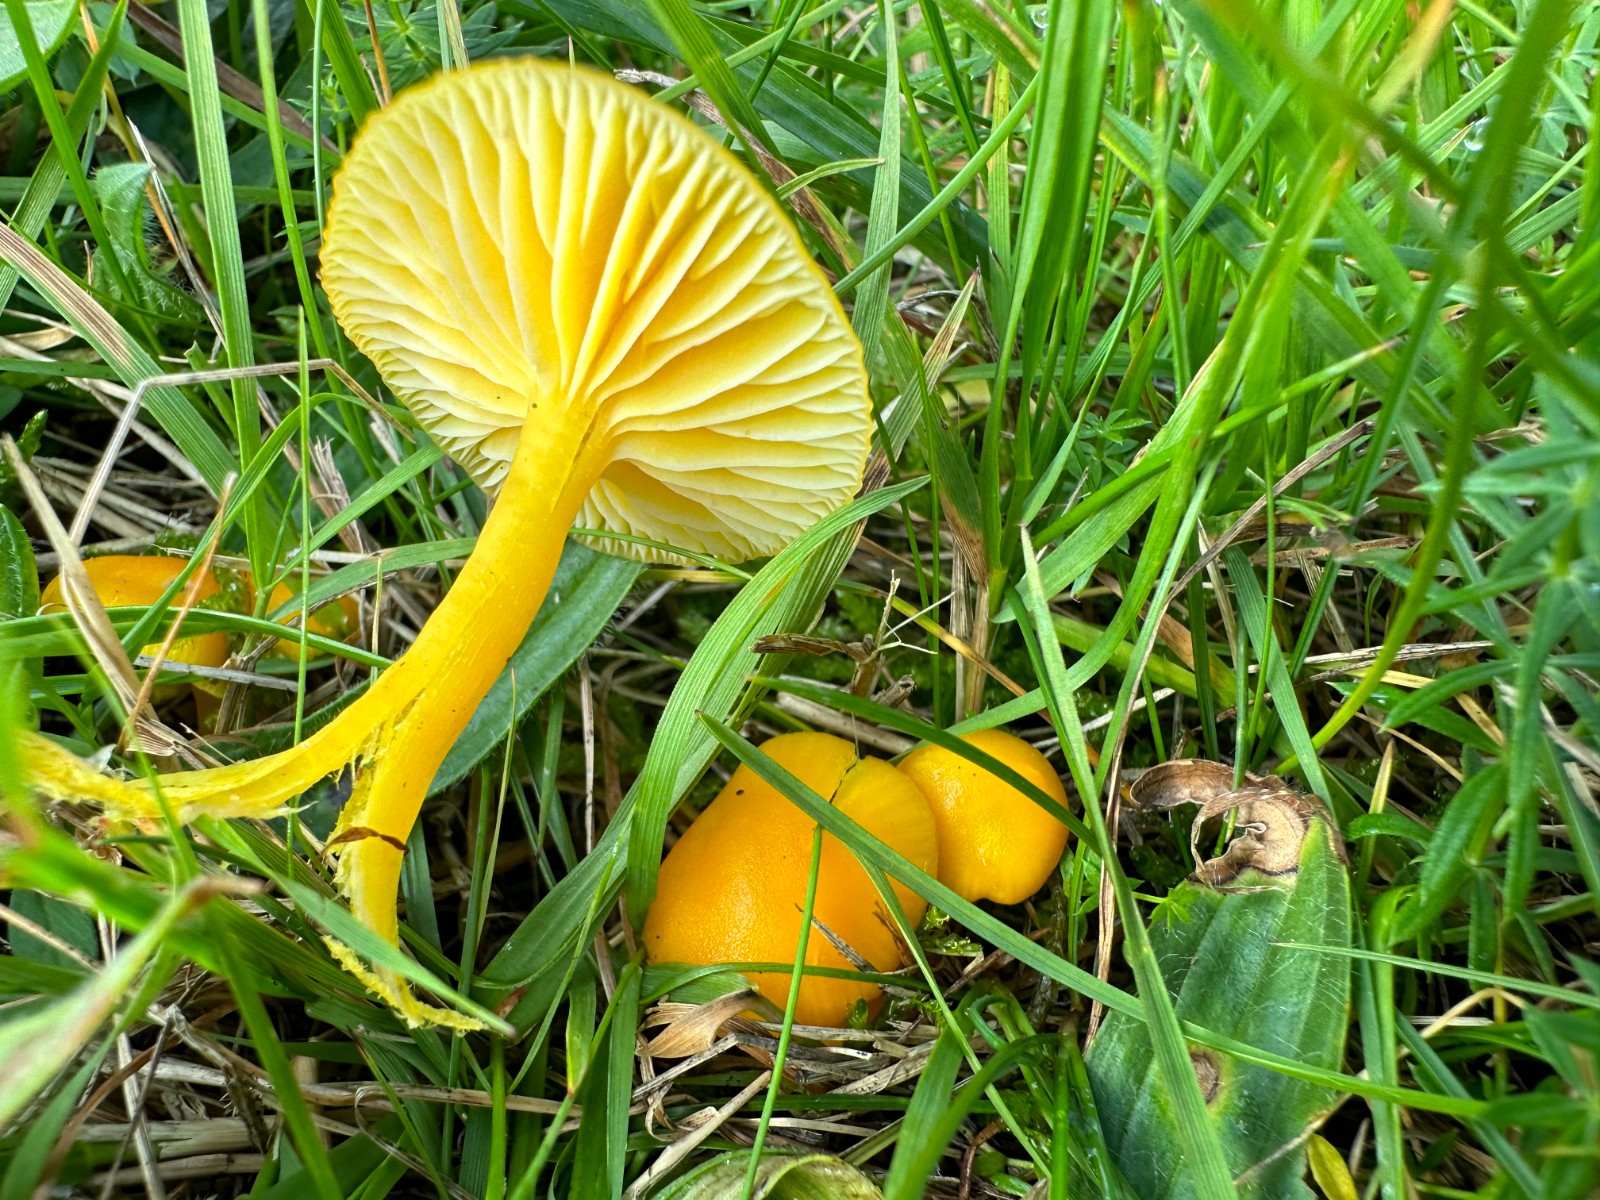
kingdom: Fungi
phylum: Basidiomycota
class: Agaricomycetes
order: Agaricales
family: Hygrophoraceae
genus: Hygrocybe
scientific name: Hygrocybe ceracea
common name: voksgul vokshat
